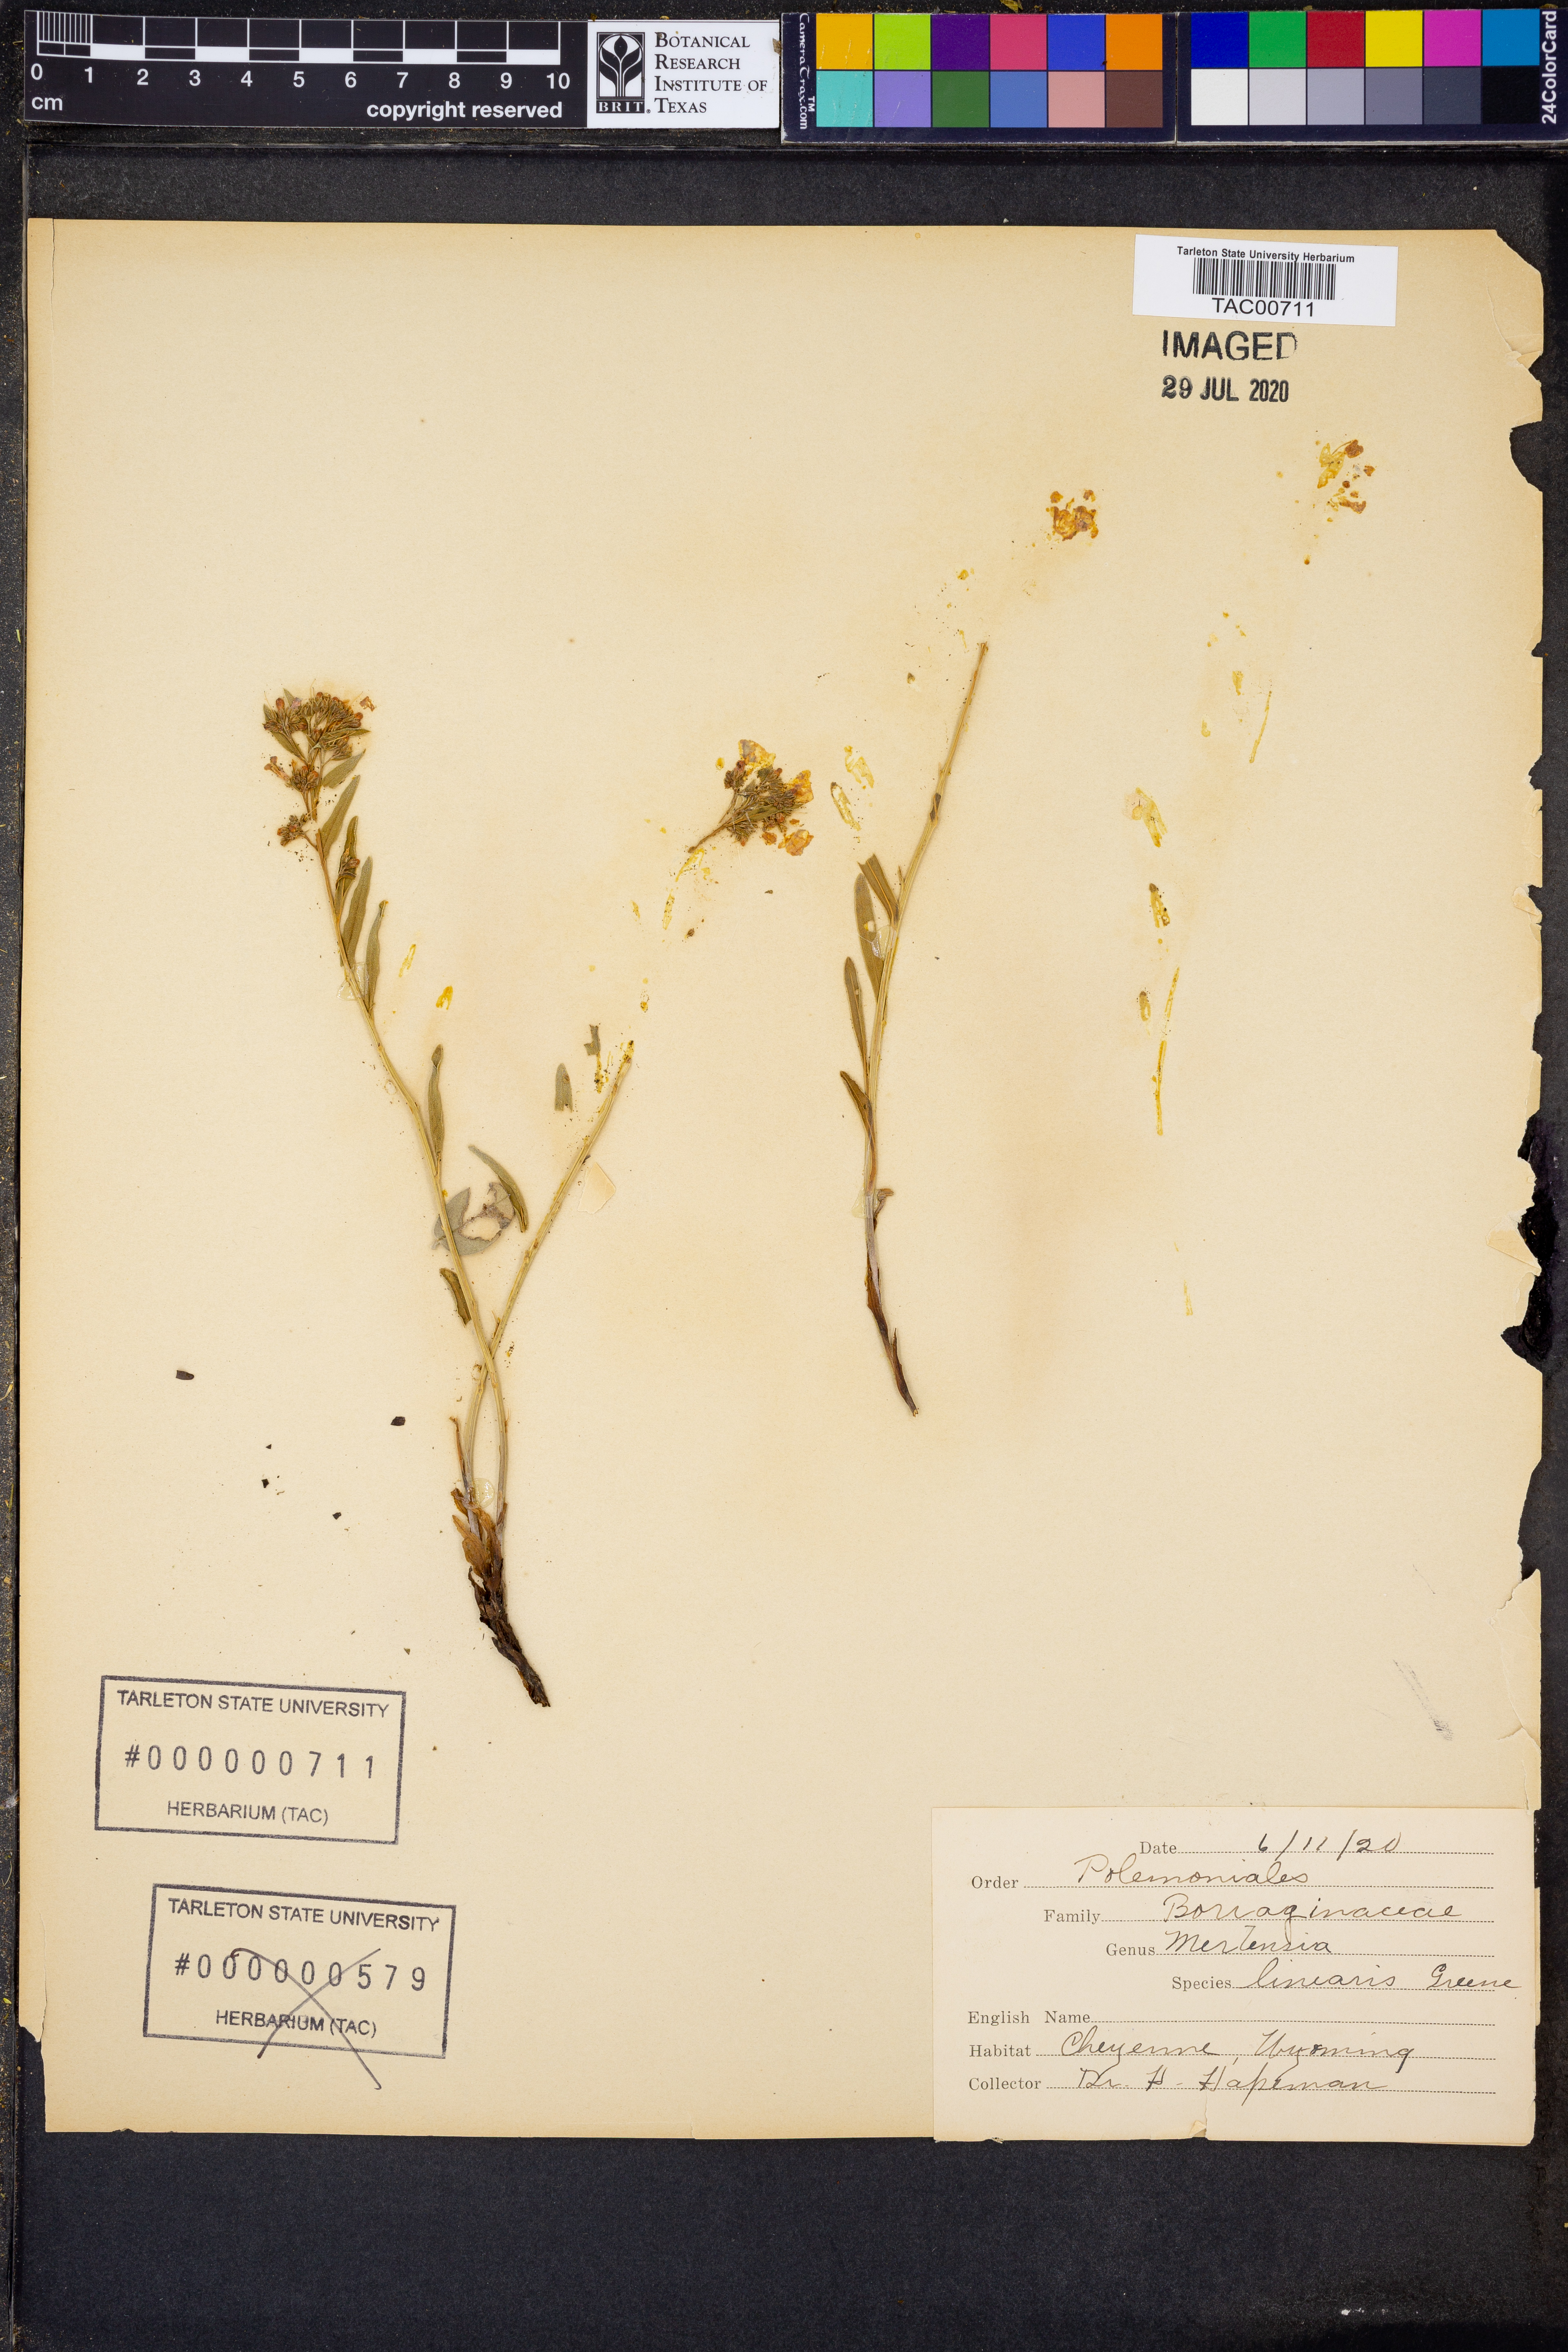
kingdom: Plantae
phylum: Tracheophyta
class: Magnoliopsida
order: Boraginales
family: Boraginaceae
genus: Mertensia
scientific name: Mertensia lanceolata
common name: Lance-leaved bluebells
